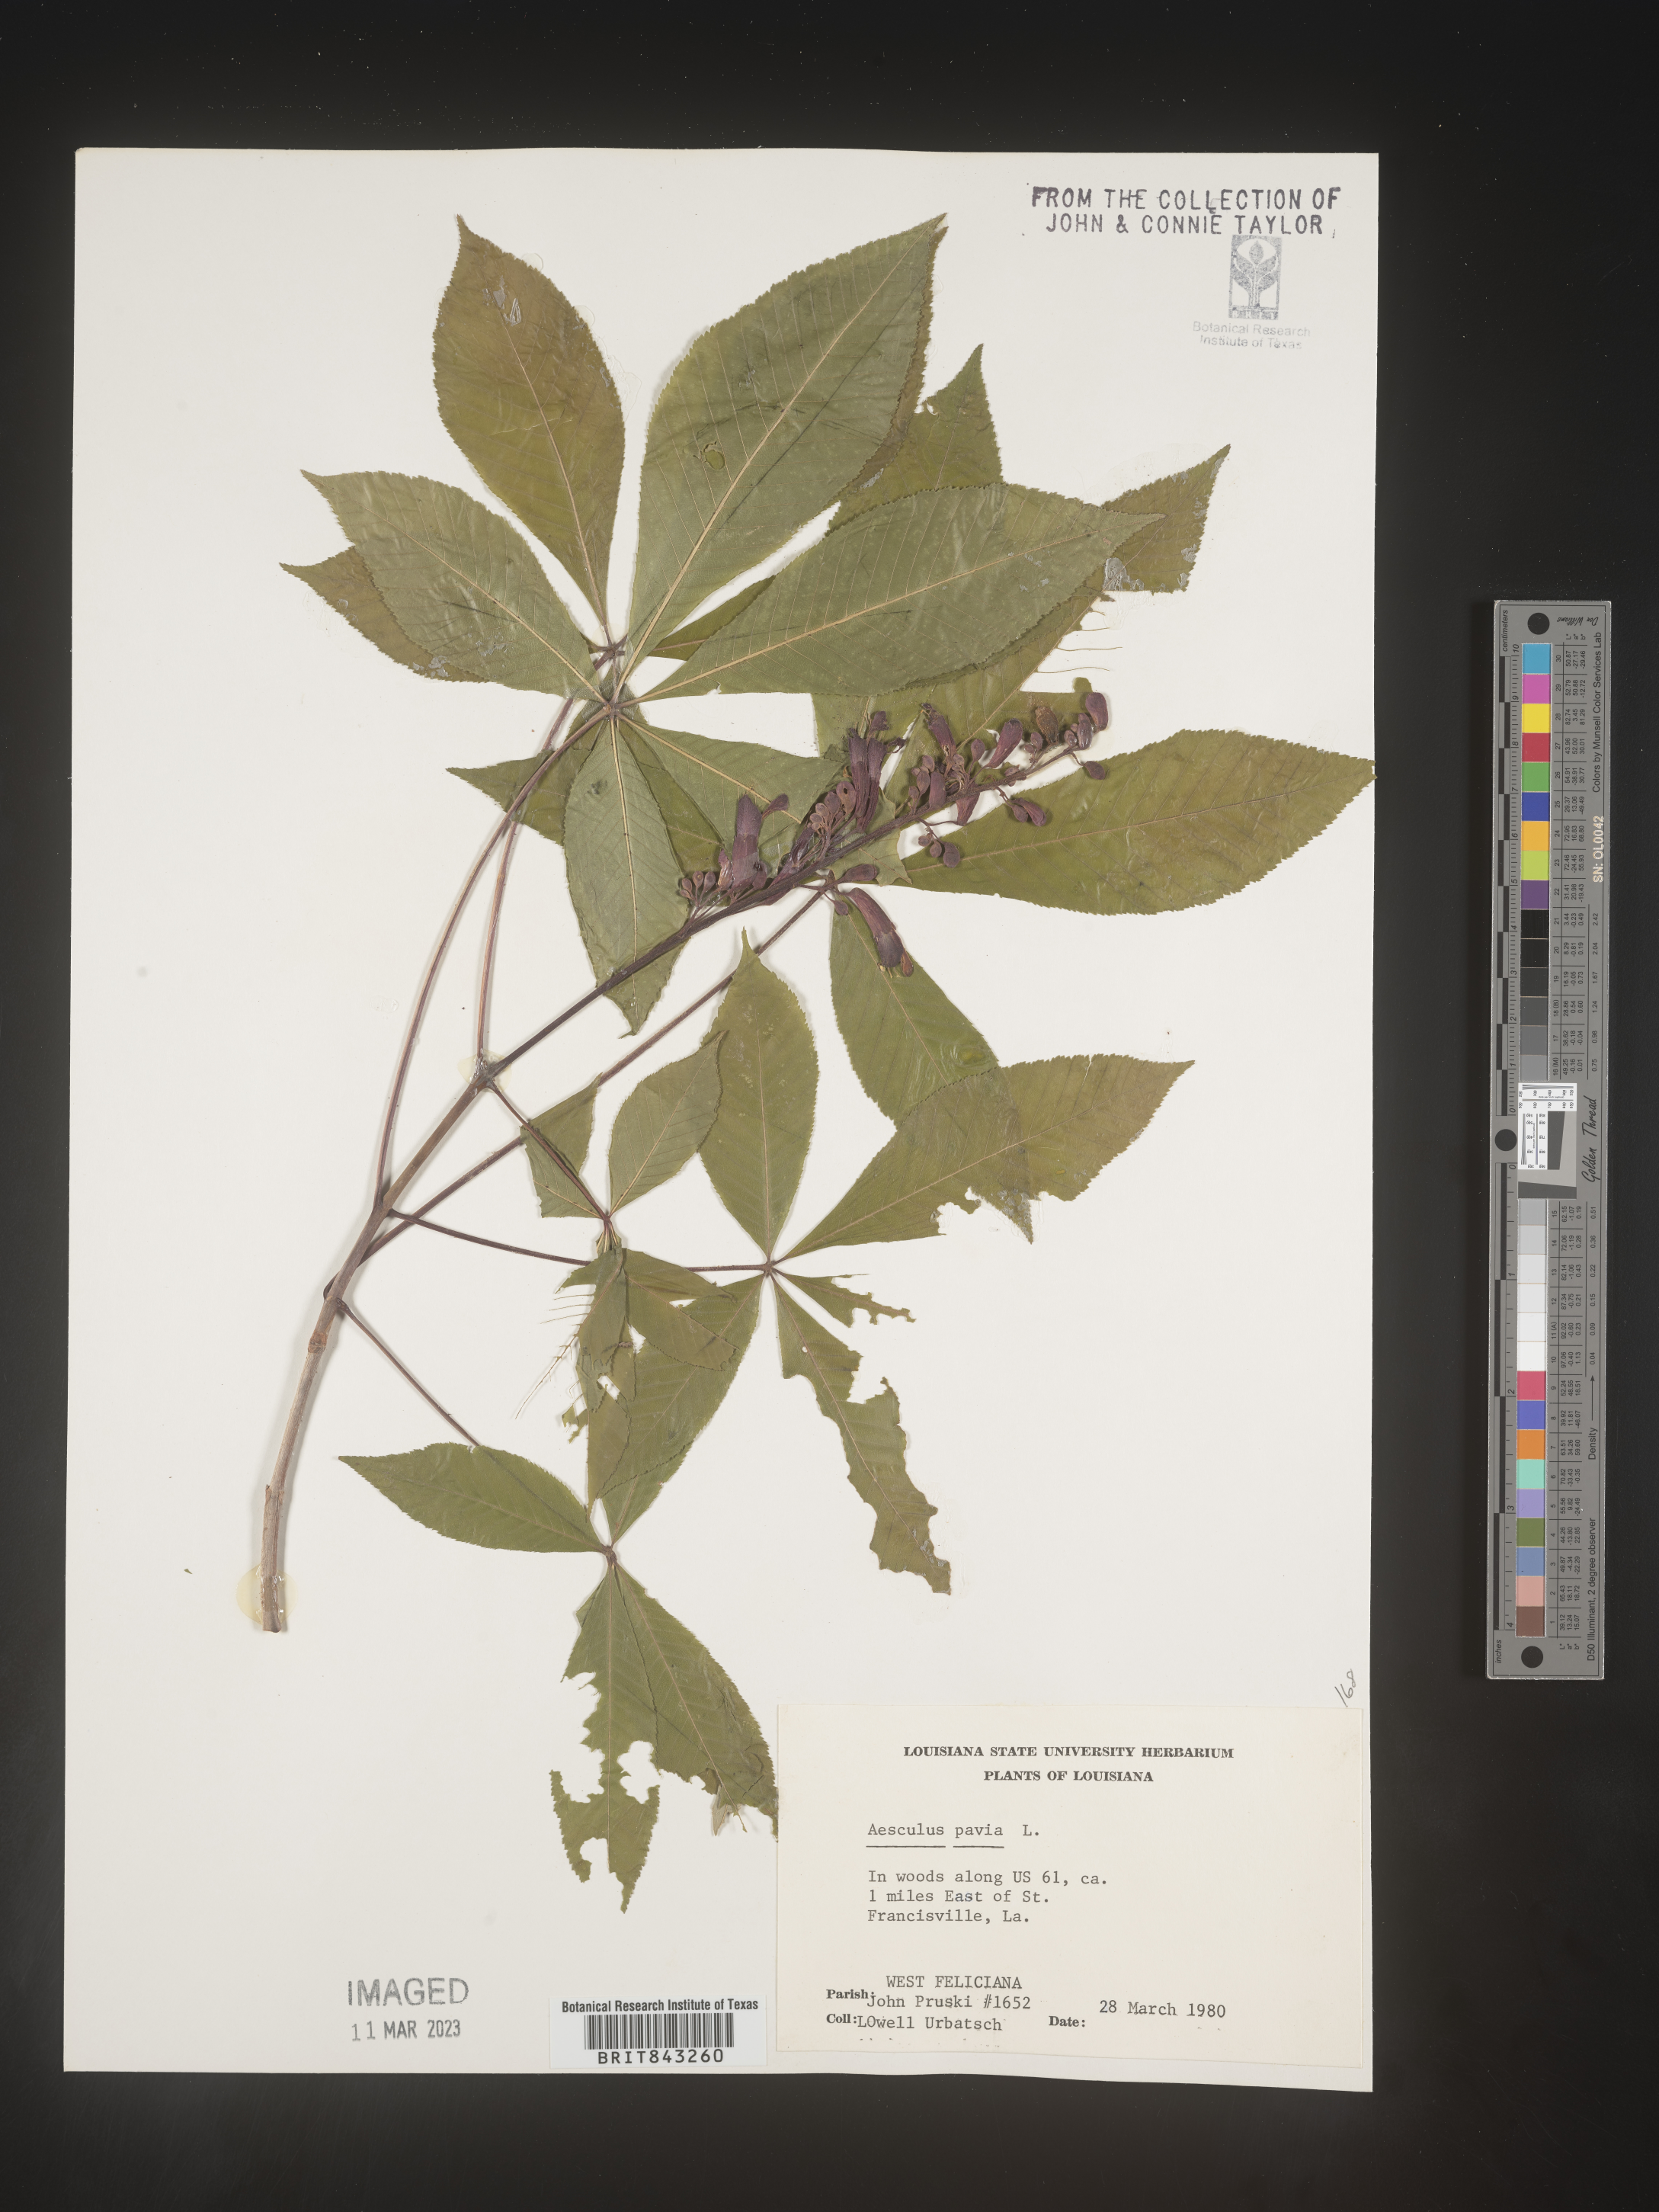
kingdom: Plantae
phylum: Tracheophyta
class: Magnoliopsida
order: Sapindales
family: Sapindaceae
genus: Aesculus
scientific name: Aesculus pavia
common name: Red buckeye
